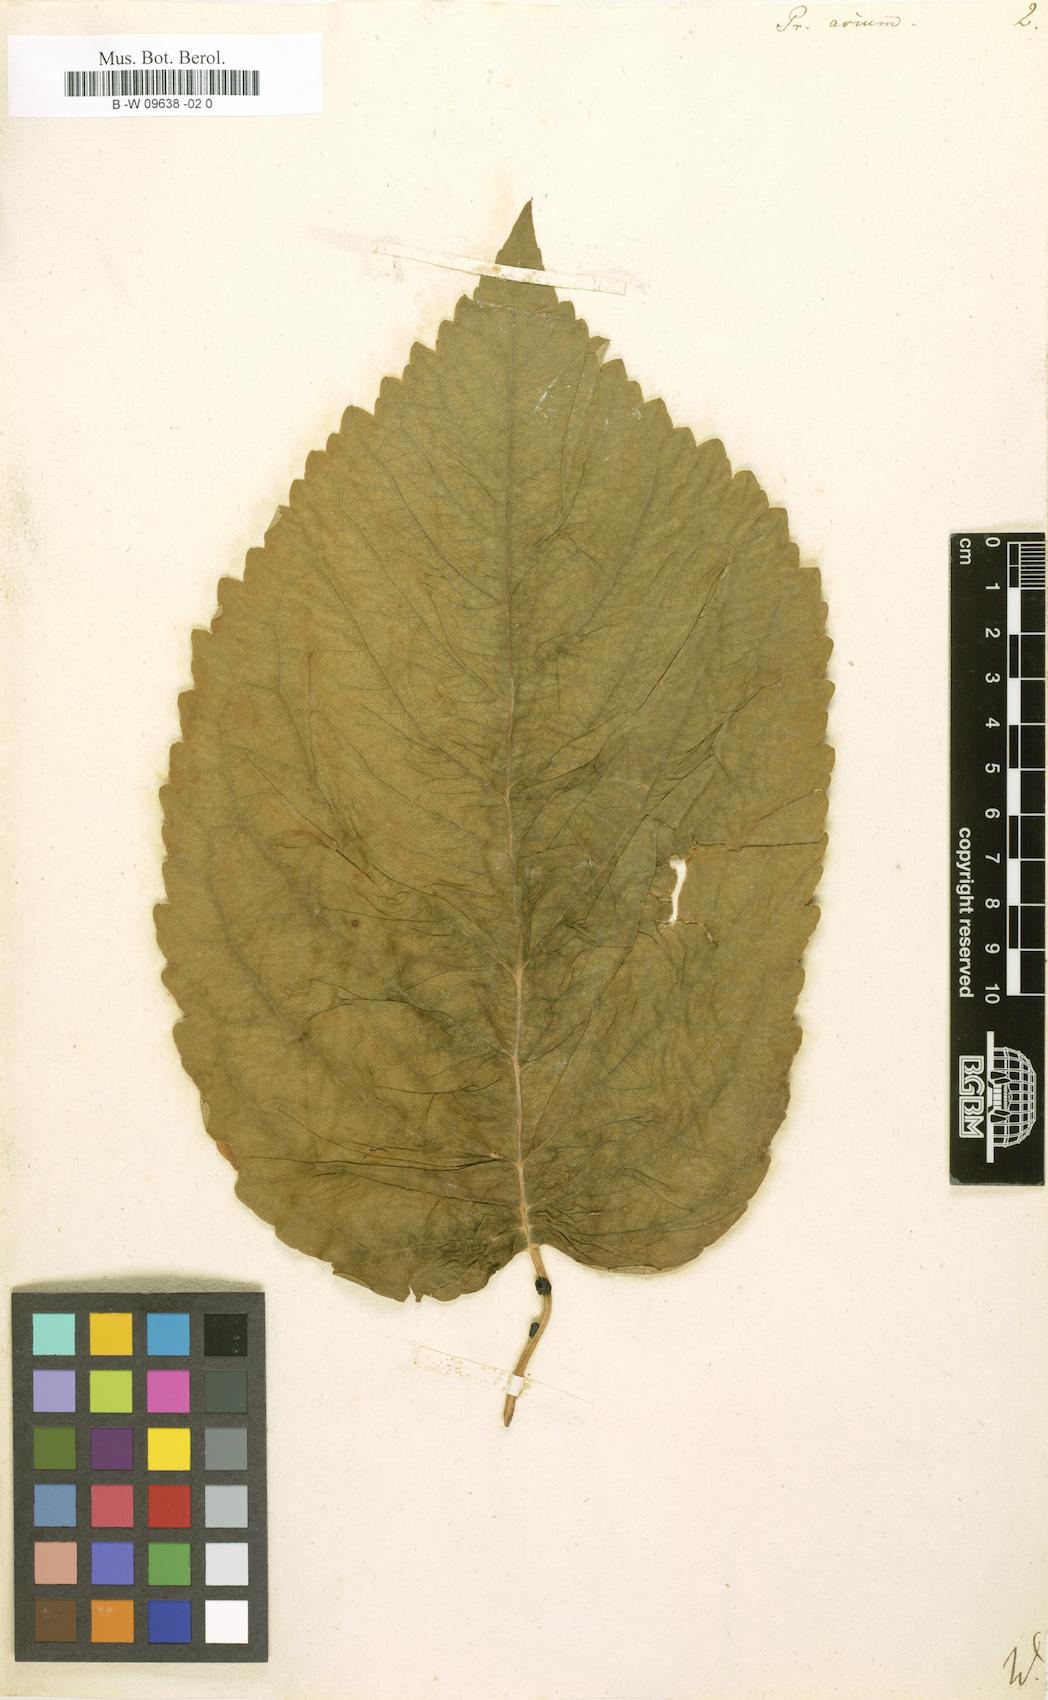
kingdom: Plantae
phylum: Tracheophyta
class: Magnoliopsida
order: Rosales
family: Rosaceae
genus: Prunus
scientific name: Prunus avium
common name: Sweet cherry
